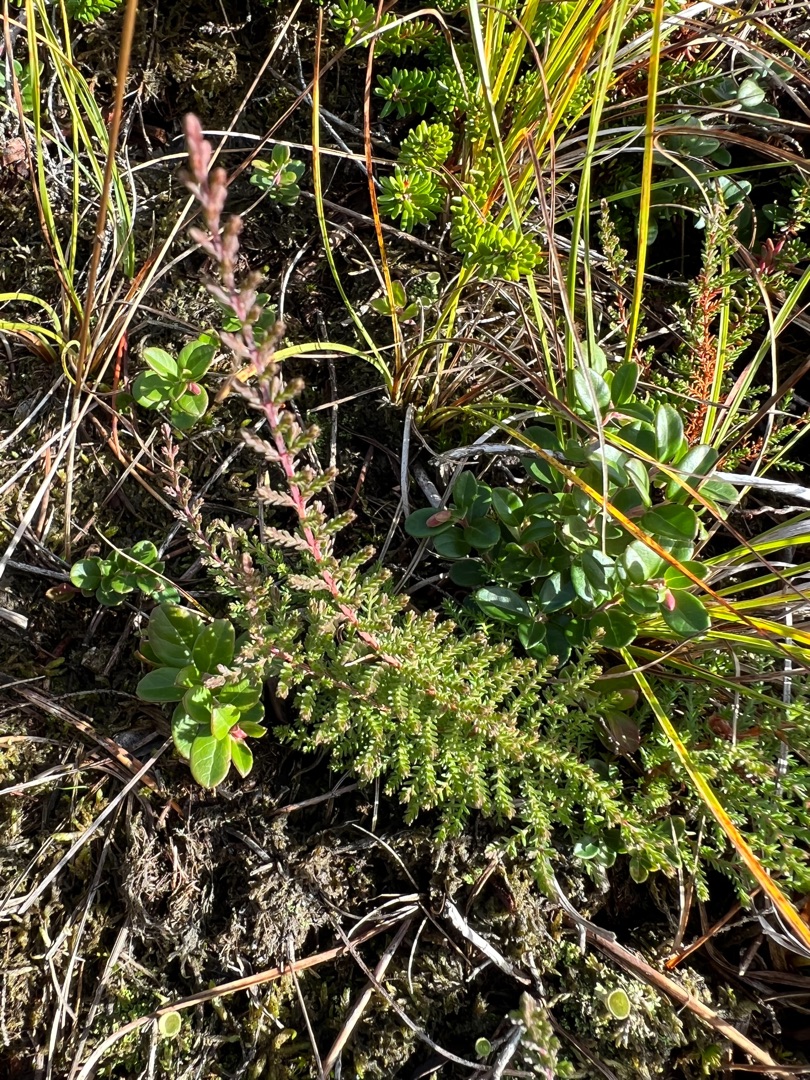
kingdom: Plantae
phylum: Tracheophyta
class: Magnoliopsida
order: Ericales
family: Ericaceae
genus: Calluna
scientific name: Calluna vulgaris
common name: Hedelyng
